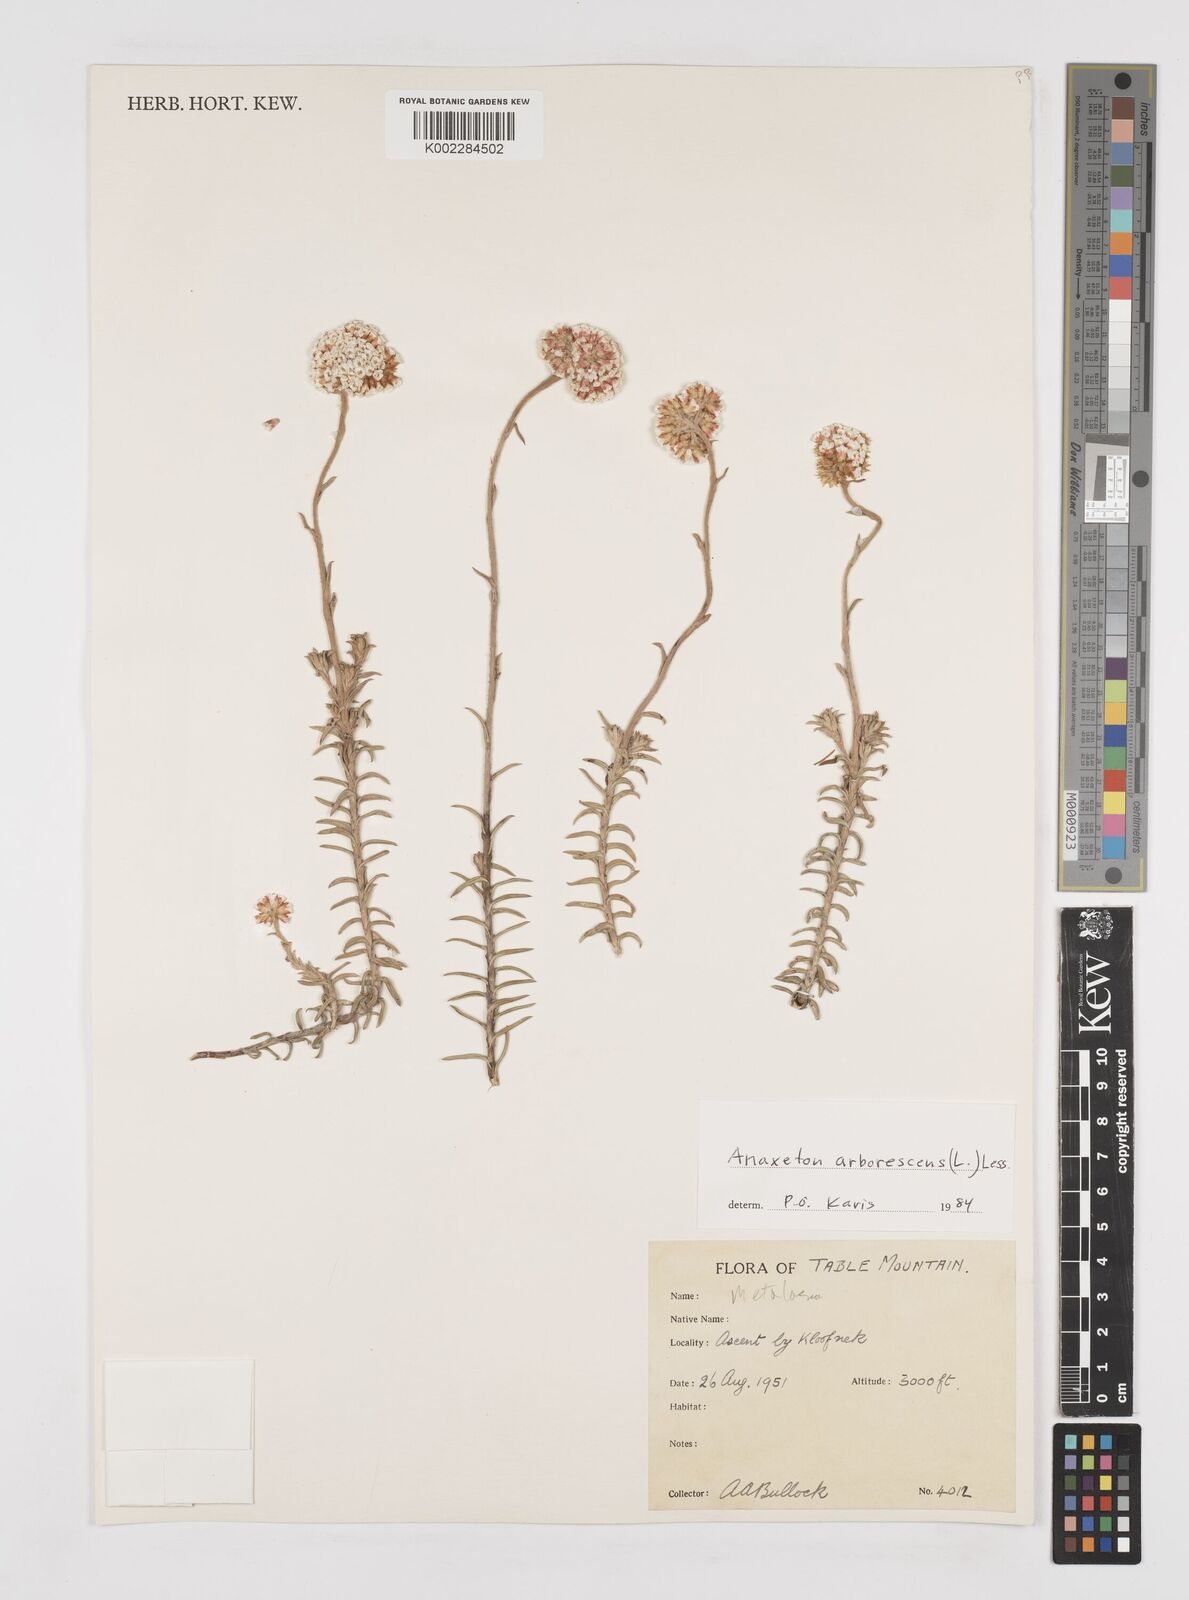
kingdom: Plantae
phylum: Tracheophyta
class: Magnoliopsida
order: Asterales
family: Asteraceae
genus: Anaxeton
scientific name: Anaxeton arborescens
